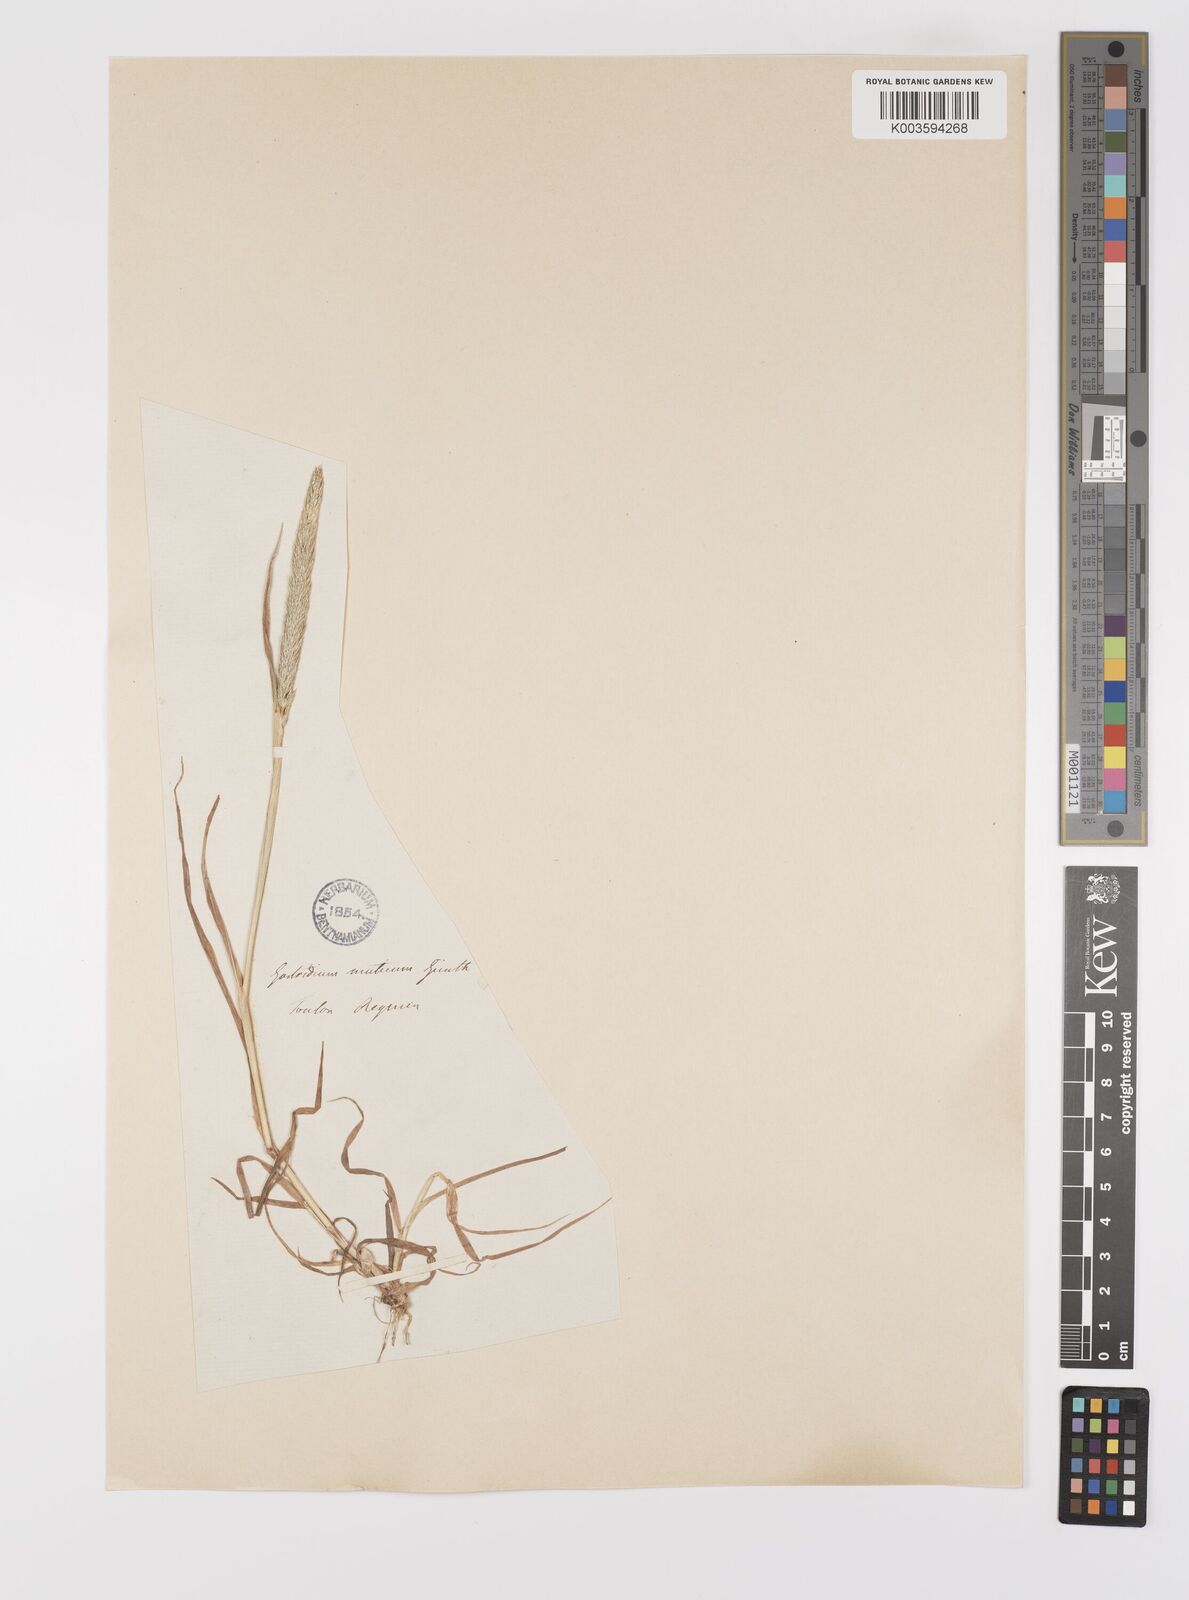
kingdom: Plantae
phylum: Tracheophyta
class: Liliopsida
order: Poales
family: Poaceae
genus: Gastridium
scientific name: Gastridium ventricosum
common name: Nit-grass
